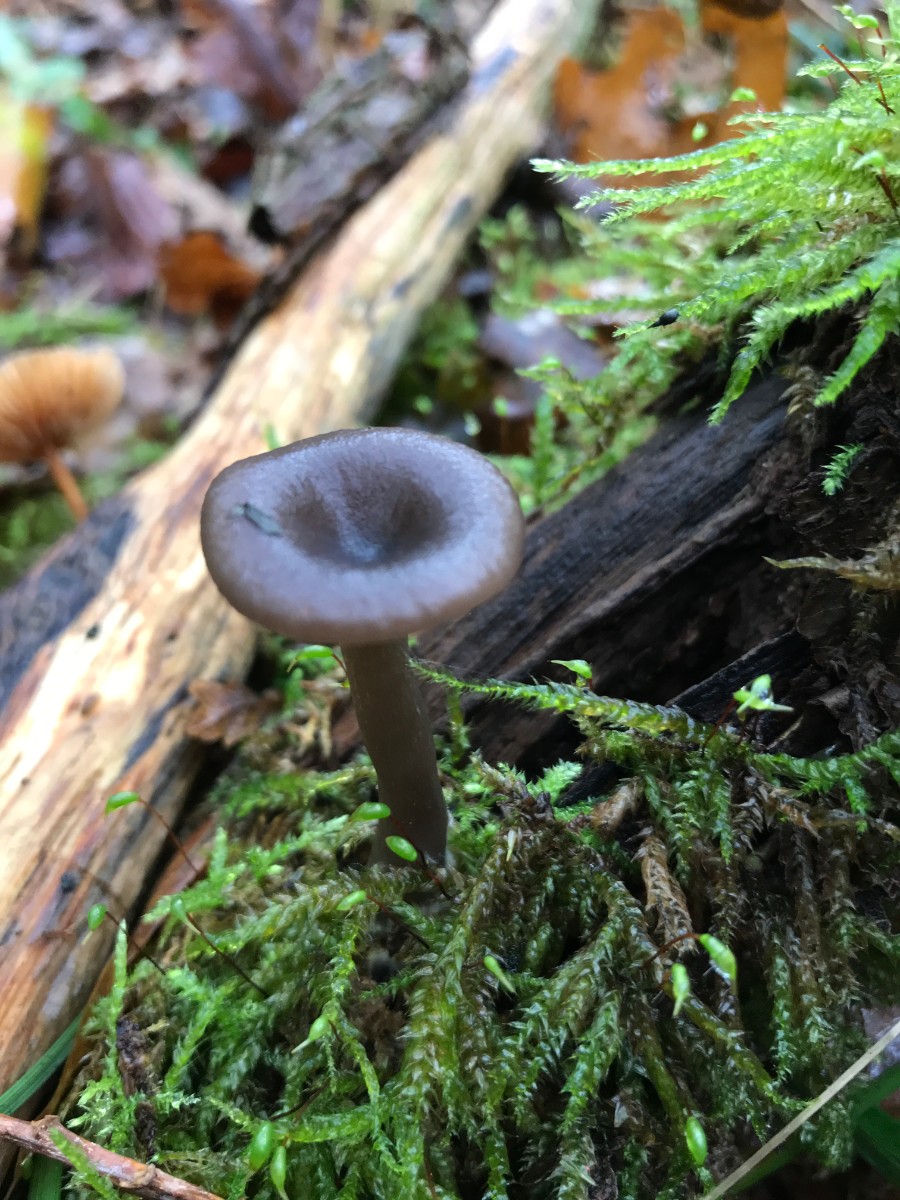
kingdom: Fungi
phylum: Basidiomycota
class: Agaricomycetes
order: Agaricales
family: Pseudoclitocybaceae
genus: Pseudoclitocybe
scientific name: Pseudoclitocybe cyathiformis
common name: almindelig bægertragthat
